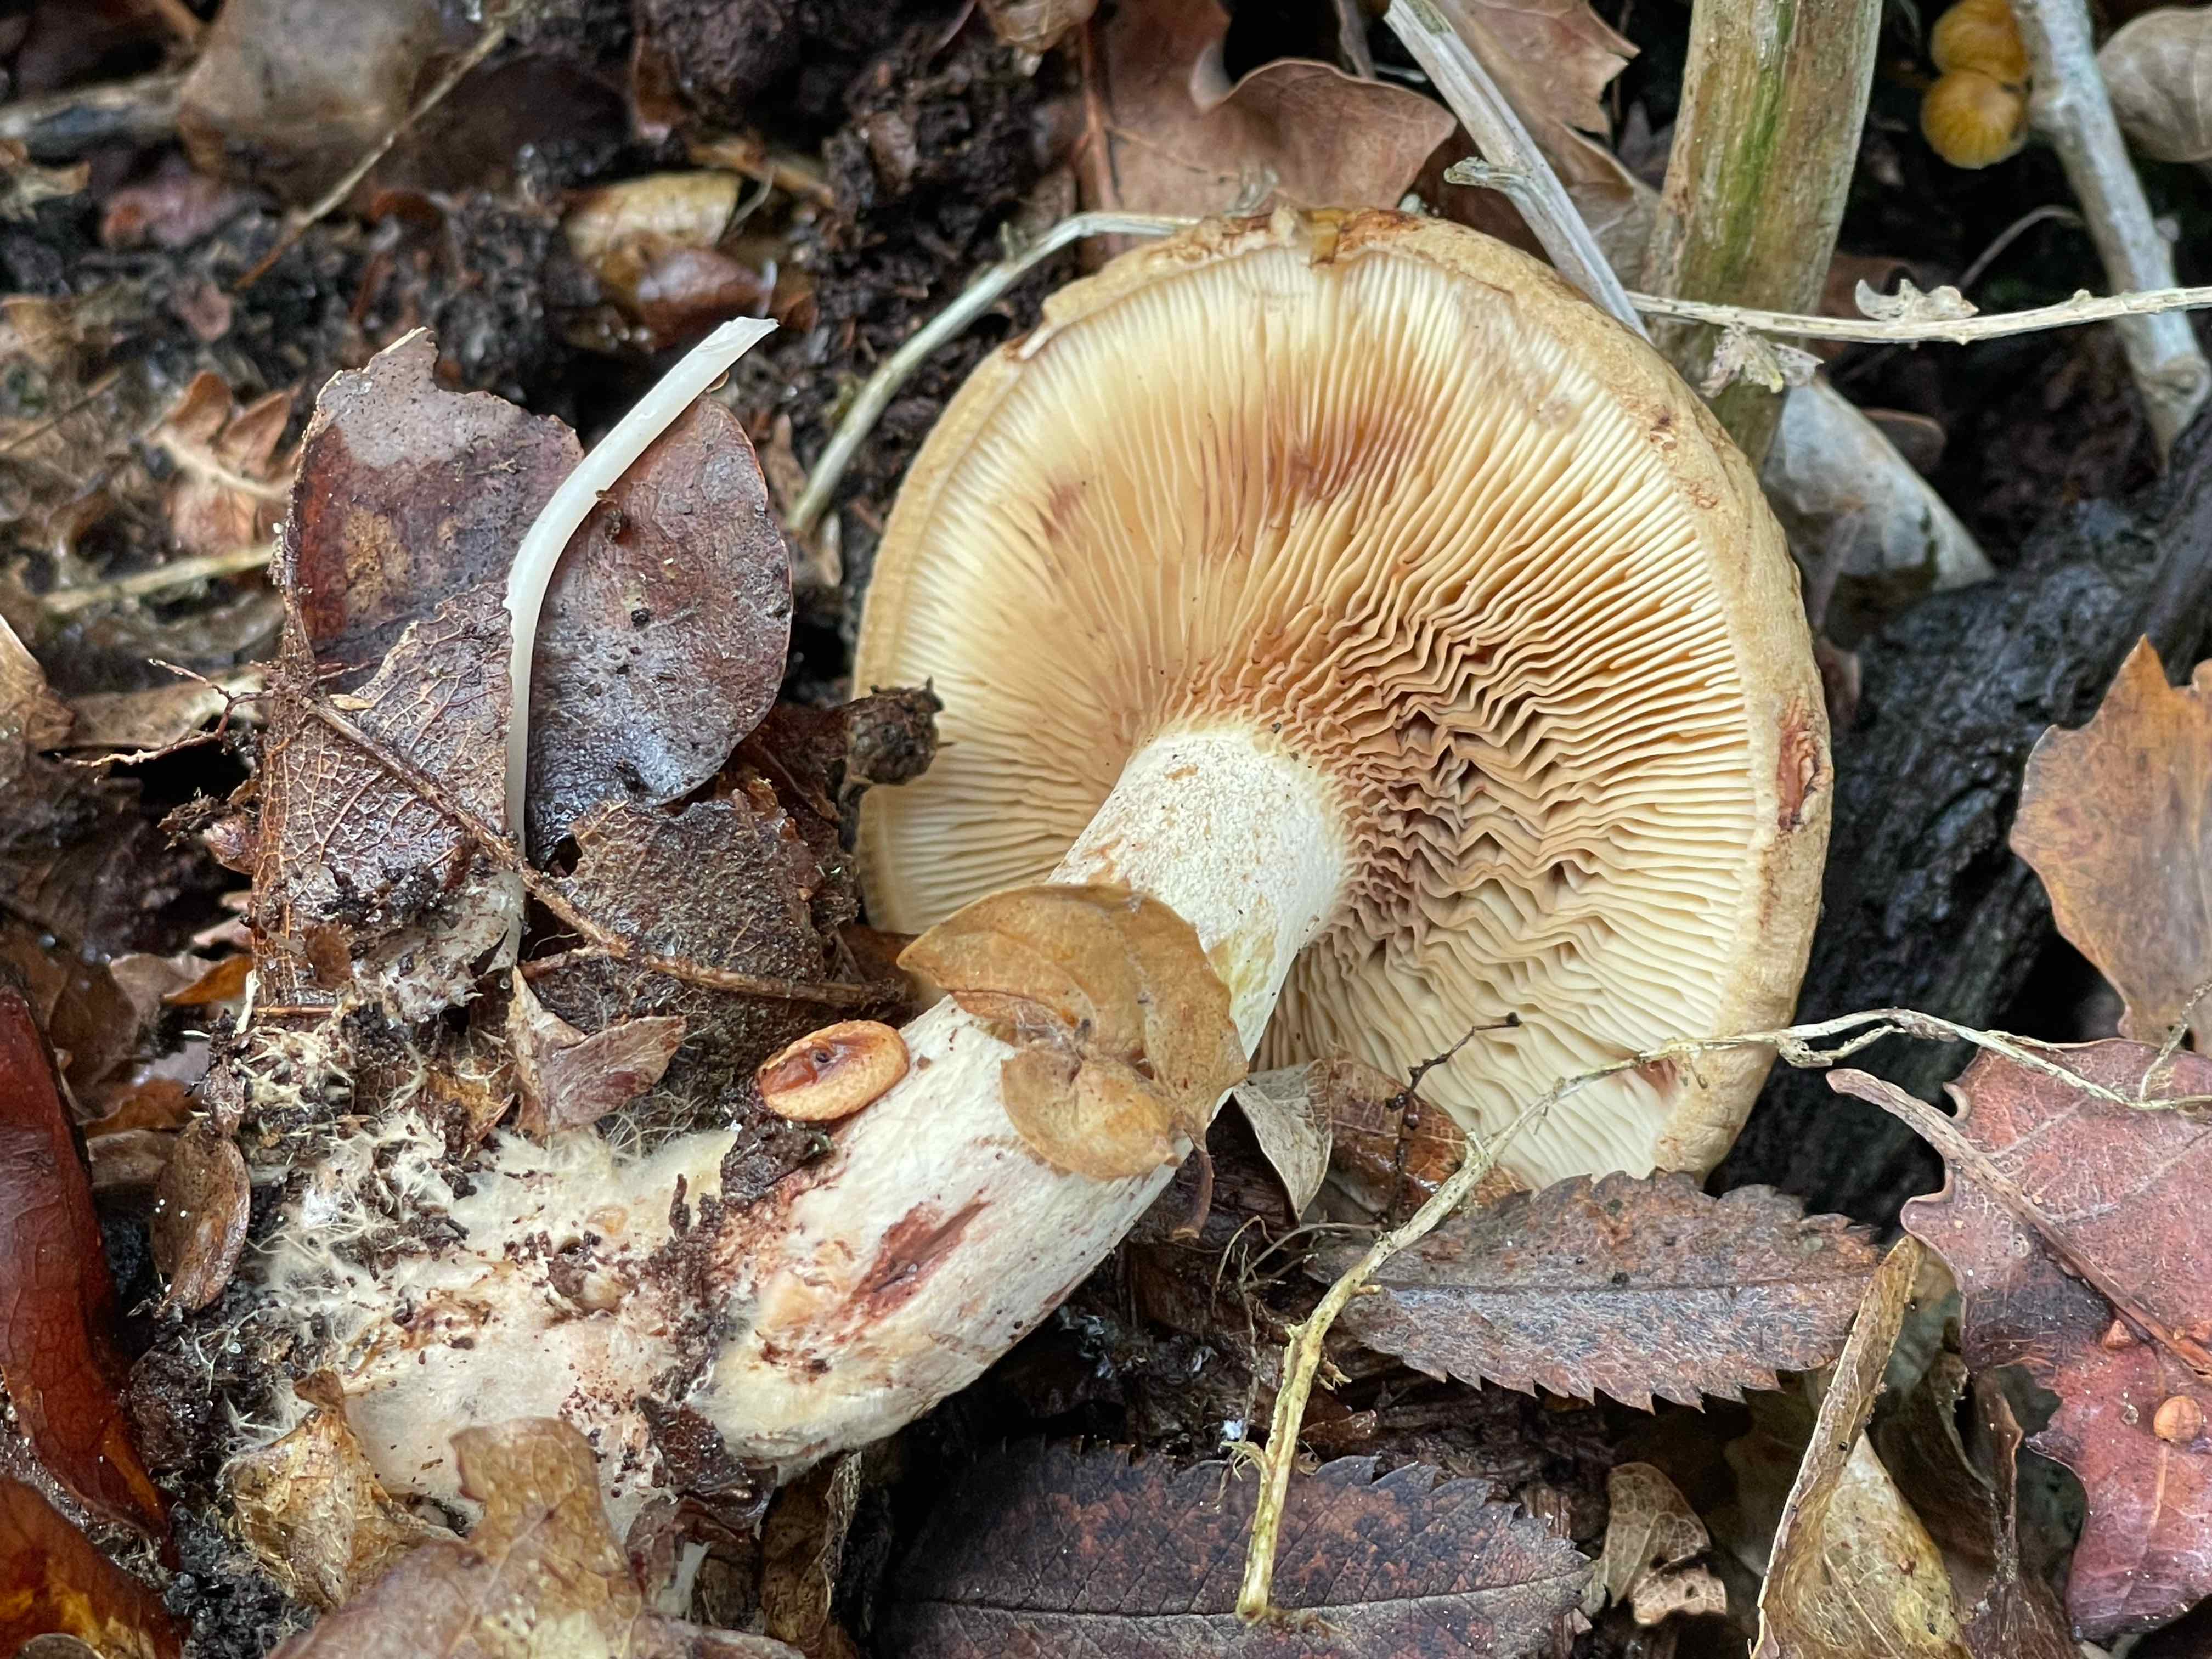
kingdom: Fungi
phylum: Basidiomycota
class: Agaricomycetes
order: Boletales
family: Paxillaceae
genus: Paxillus
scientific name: Paxillus involutus
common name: almindelig netbladhat
